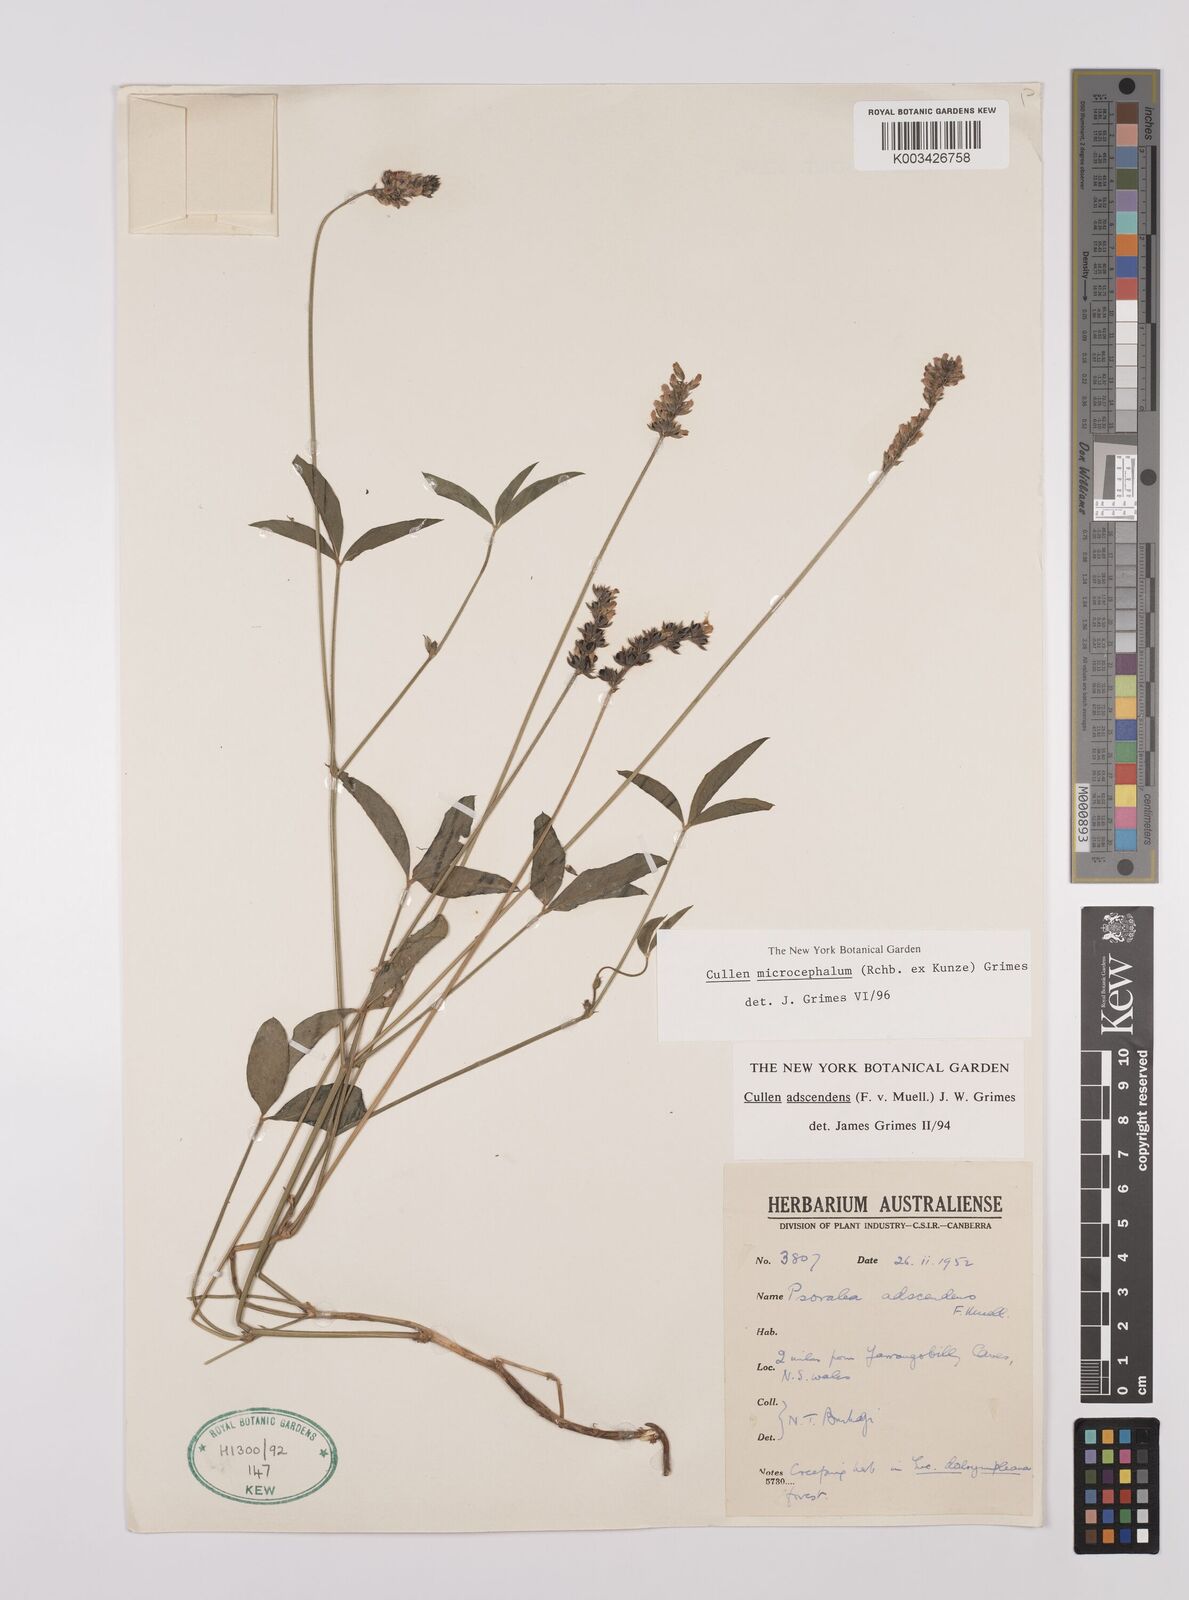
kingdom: Plantae
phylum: Tracheophyta
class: Magnoliopsida
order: Fabales
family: Fabaceae
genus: Cullen
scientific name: Cullen microcephalum
